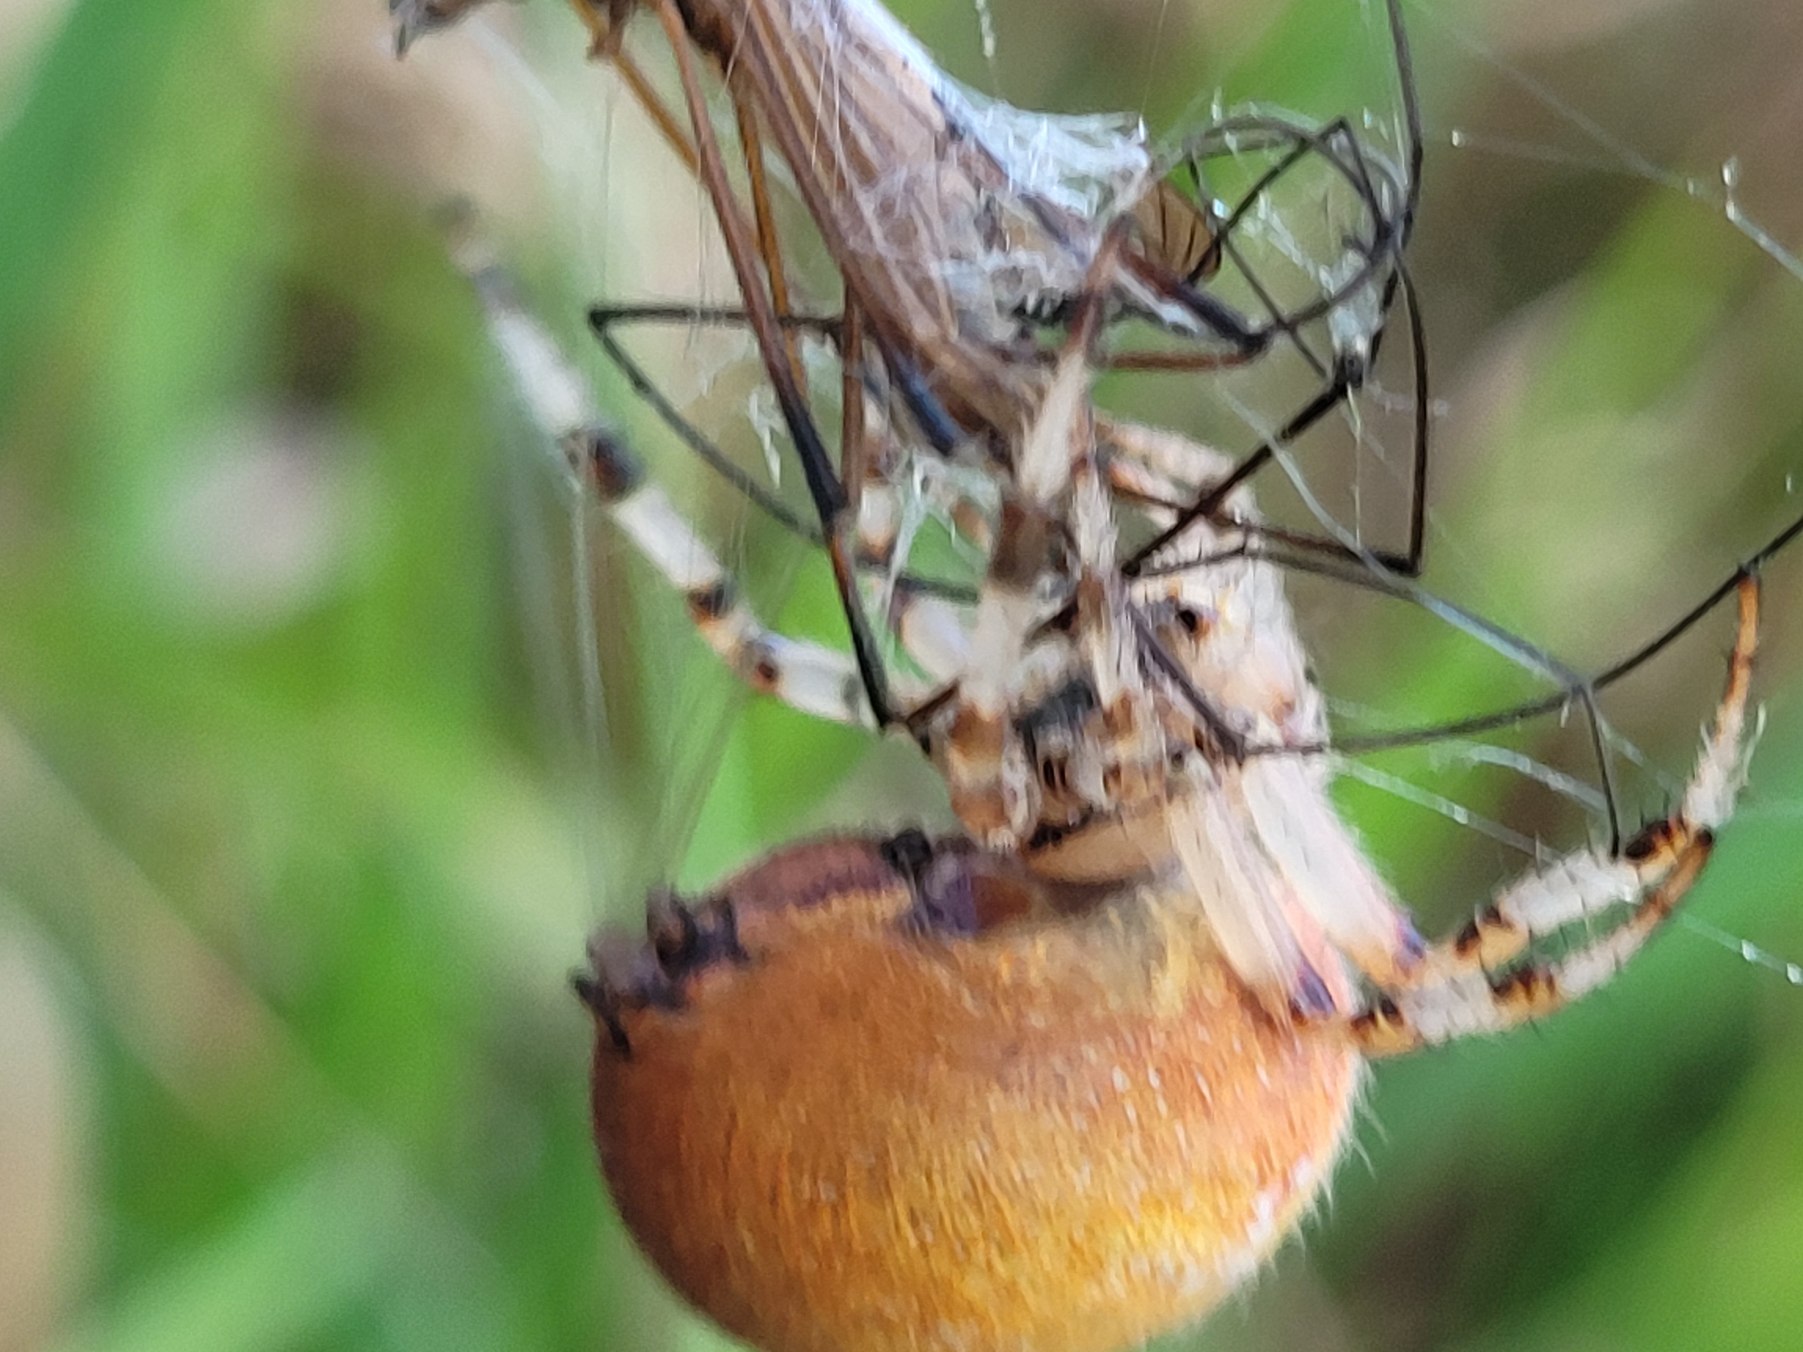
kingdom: Animalia
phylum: Arthropoda
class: Arachnida
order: Araneae
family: Araneidae
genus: Araneus
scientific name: Araneus quadratus
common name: Kvadratedderkop
